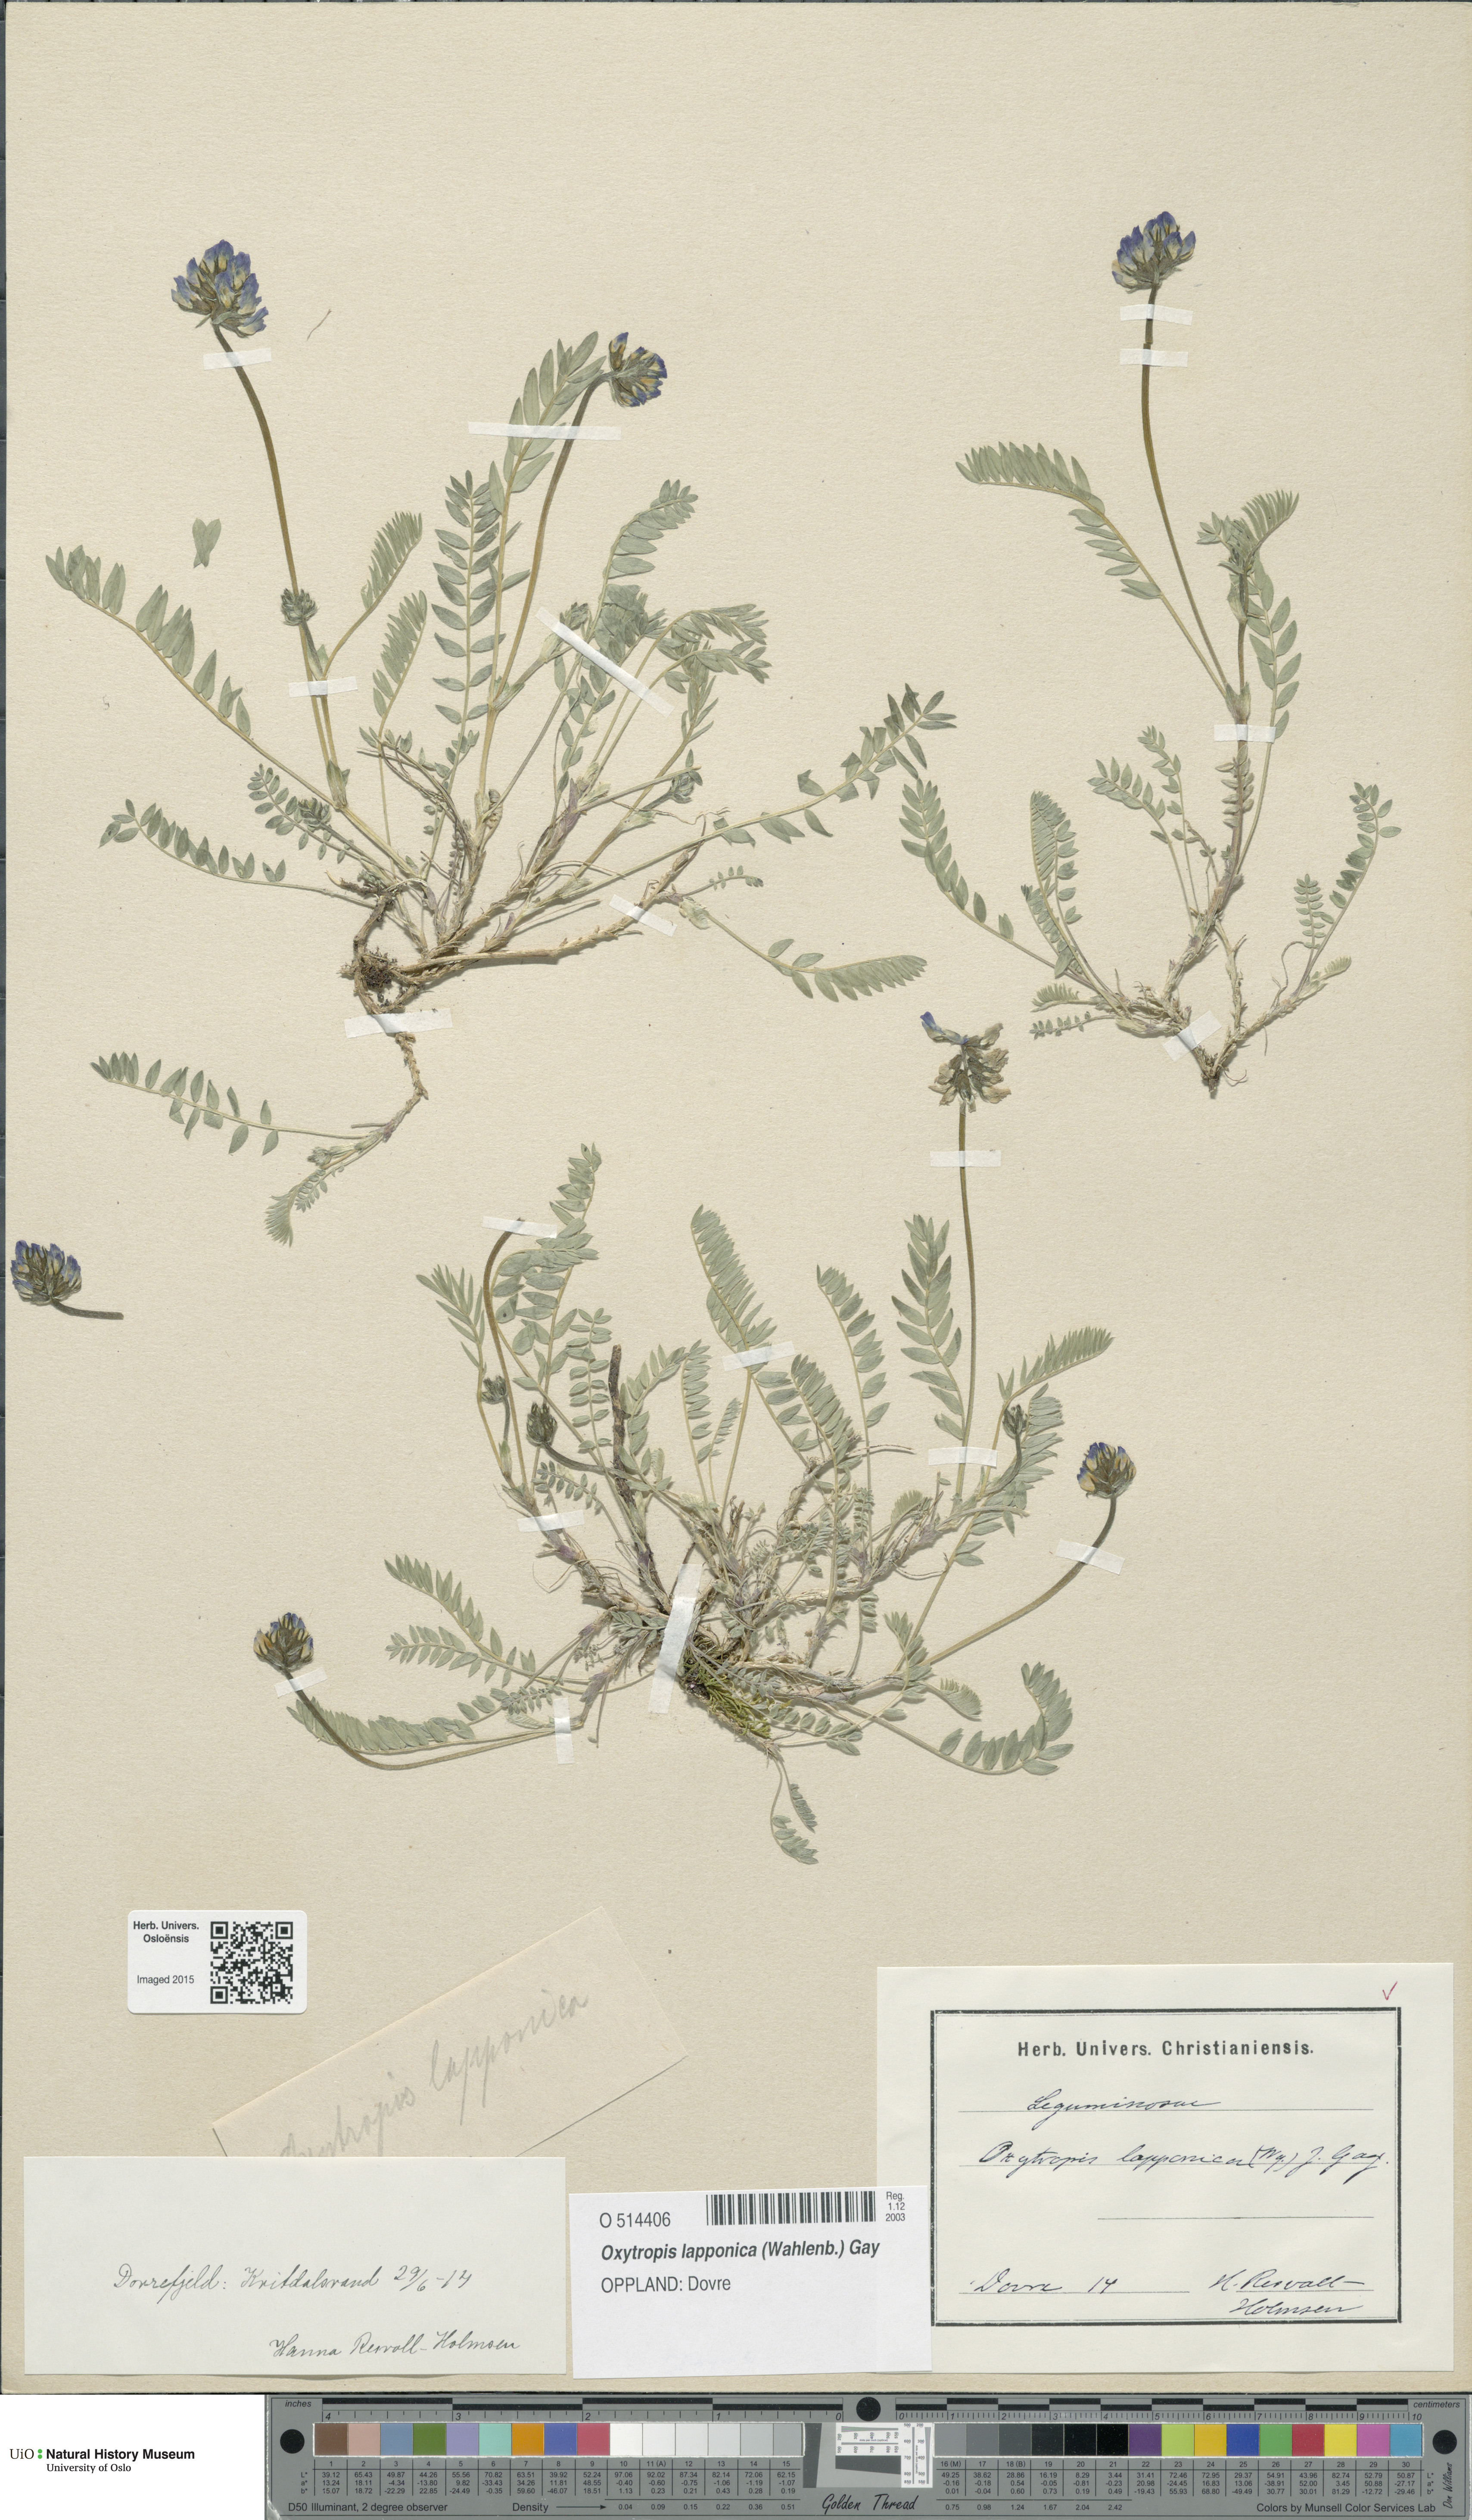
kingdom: Plantae
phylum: Tracheophyta
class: Magnoliopsida
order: Fabales
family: Fabaceae
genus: Oxytropis
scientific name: Oxytropis lapponica
